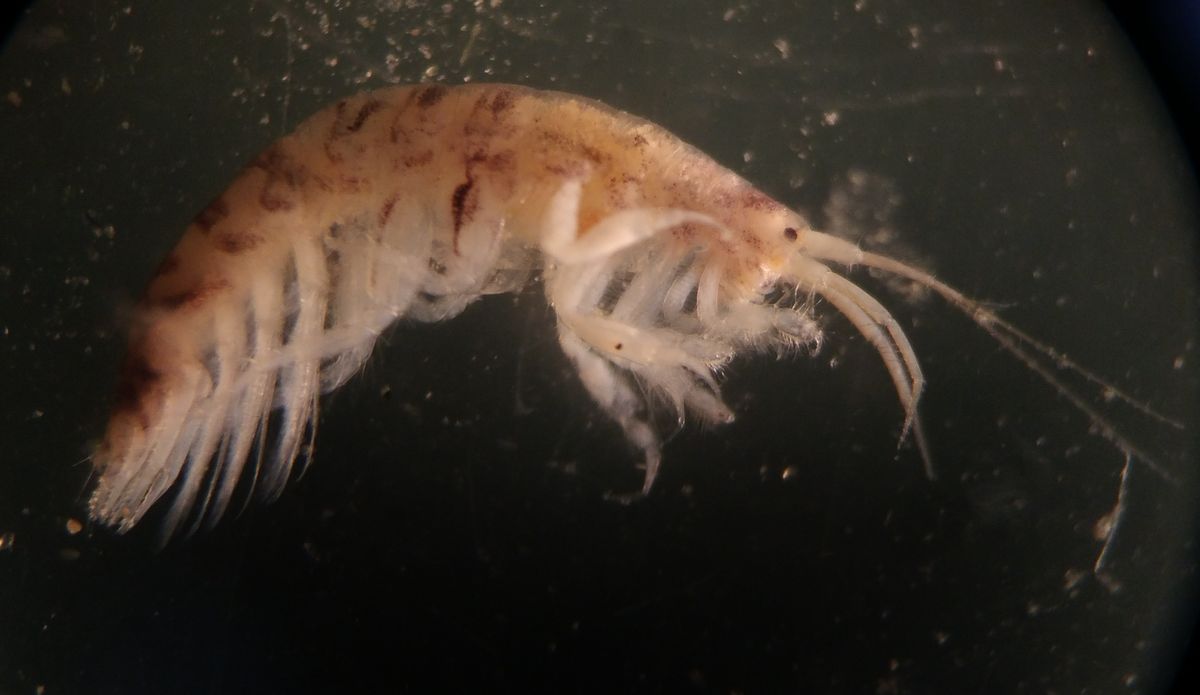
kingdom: Animalia
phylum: Arthropoda
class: Malacostraca
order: Amphipoda
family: Corophiidae
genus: Crassicorophium
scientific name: Crassicorophium bonellii
